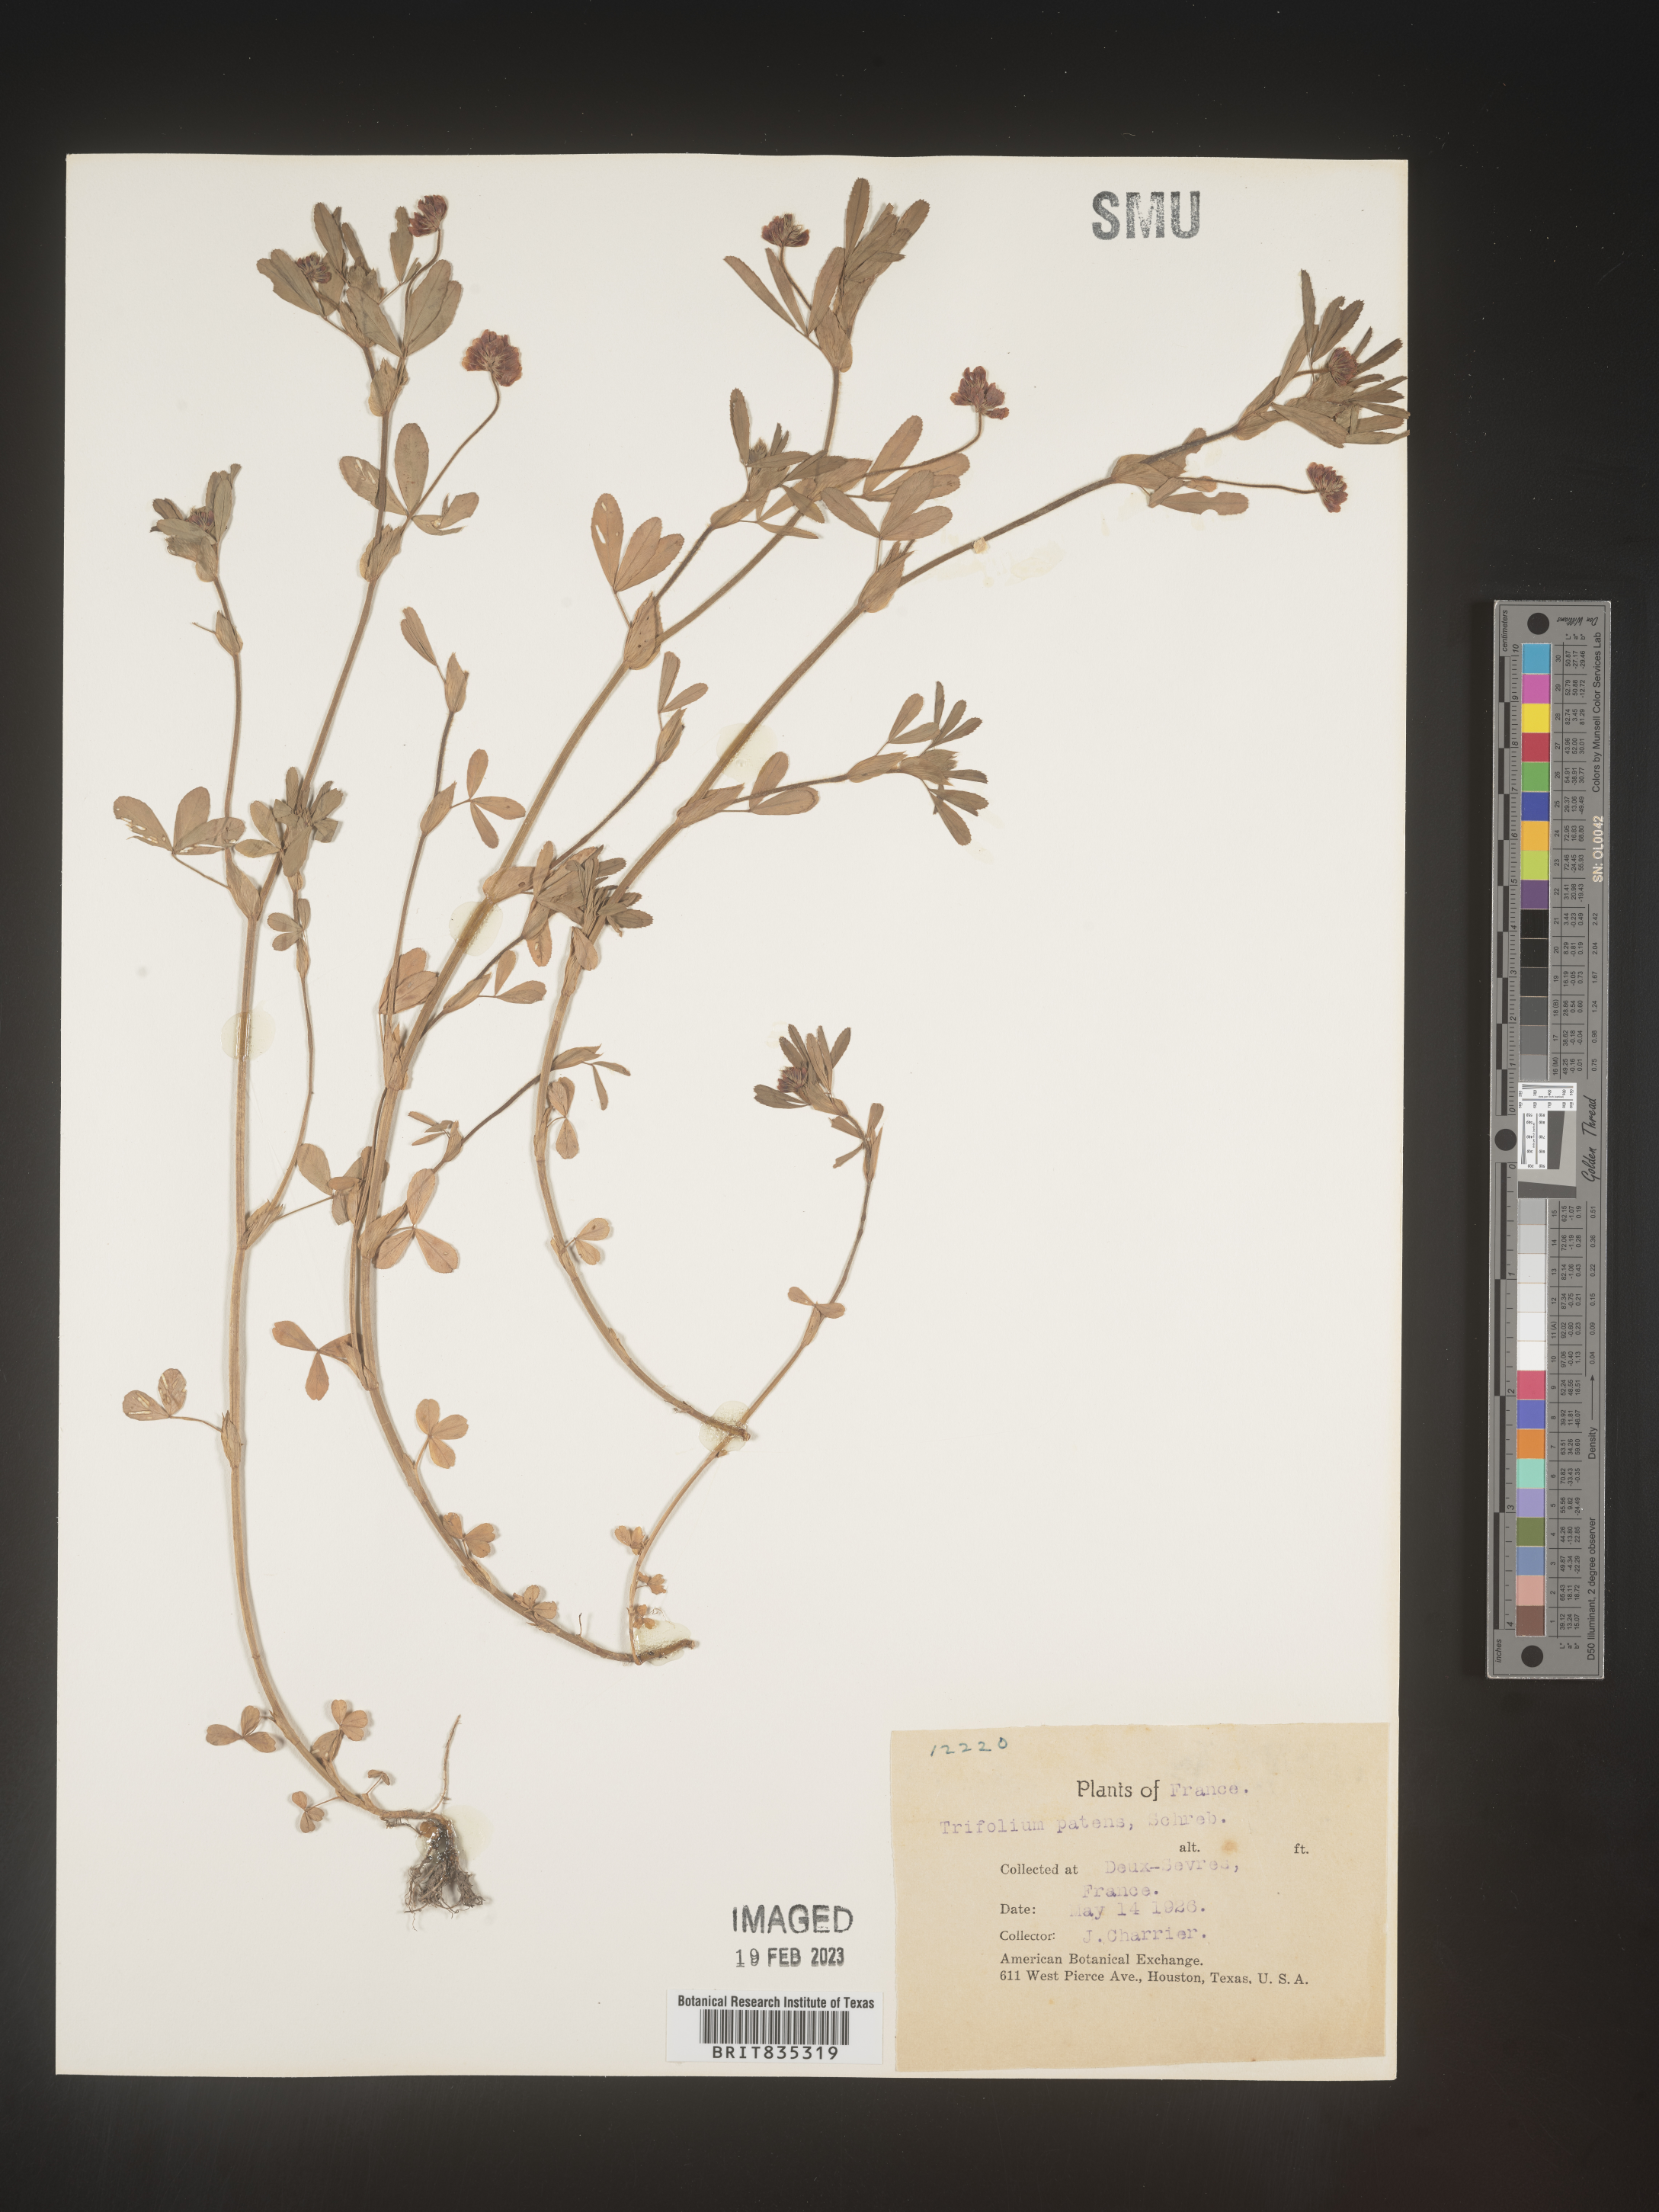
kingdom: Plantae
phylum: Tracheophyta
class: Magnoliopsida
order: Fabales
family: Fabaceae
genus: Trifolium
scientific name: Trifolium
